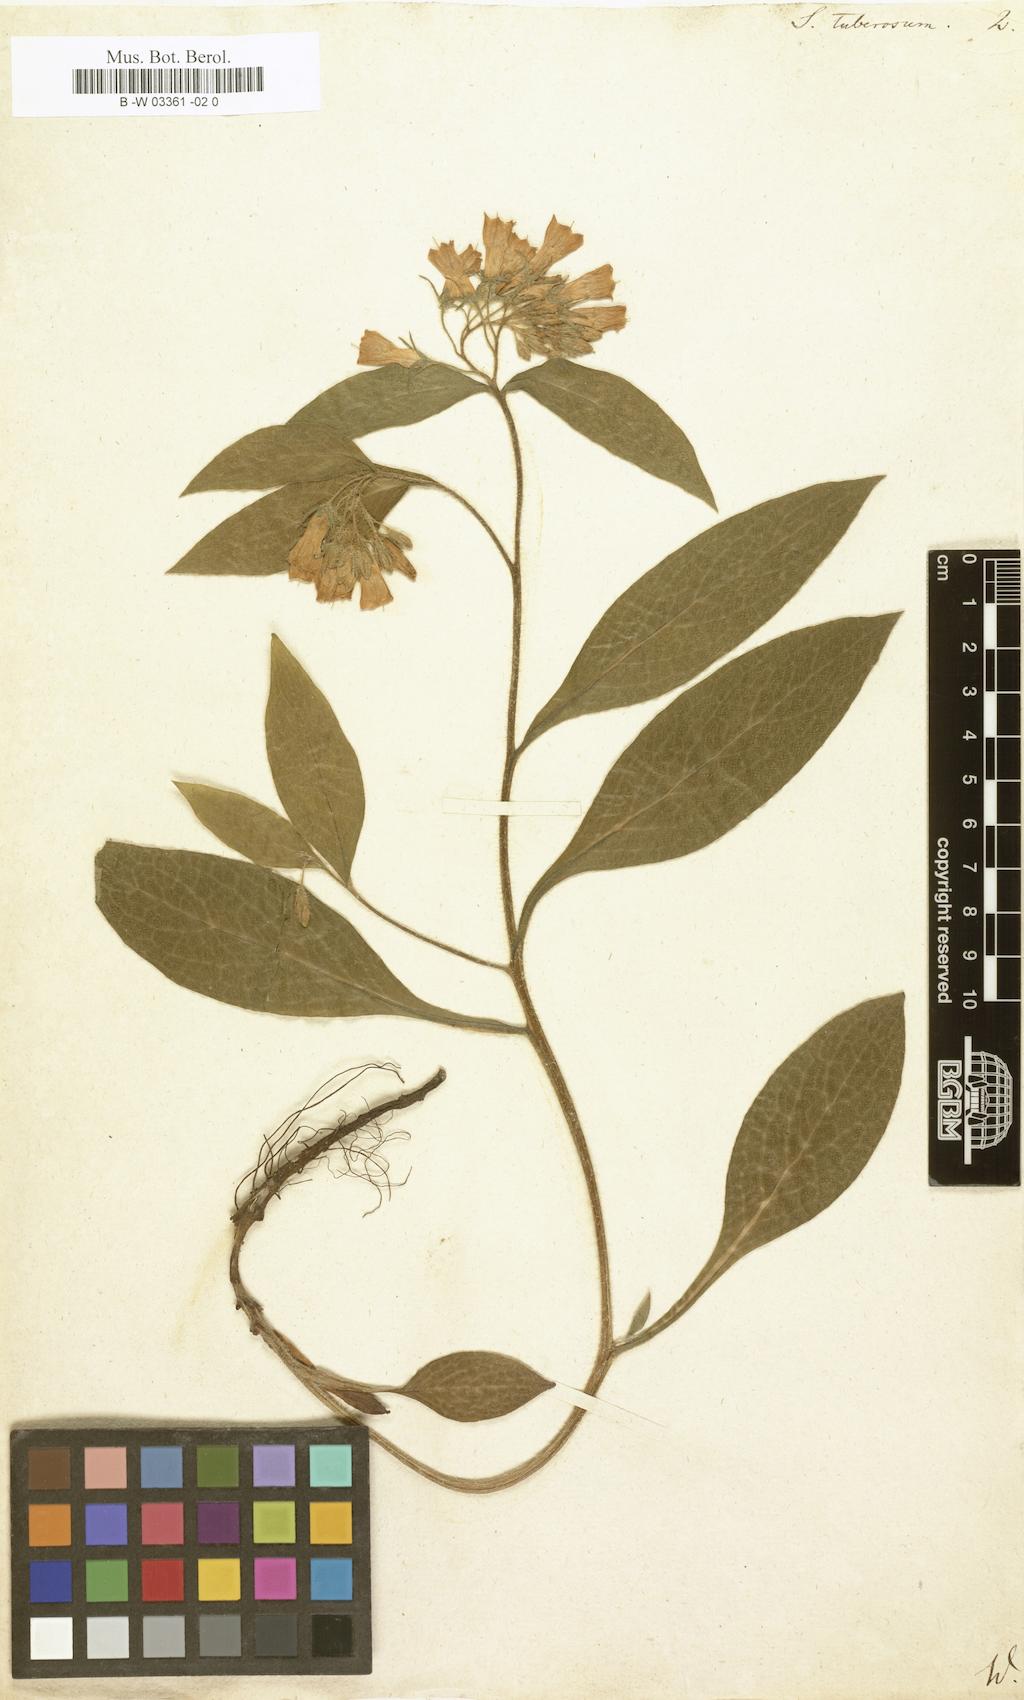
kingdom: Plantae
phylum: Tracheophyta
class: Magnoliopsida
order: Boraginales
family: Boraginaceae
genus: Symphytum
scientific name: Symphytum tuberosum
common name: Tuberous comfrey
